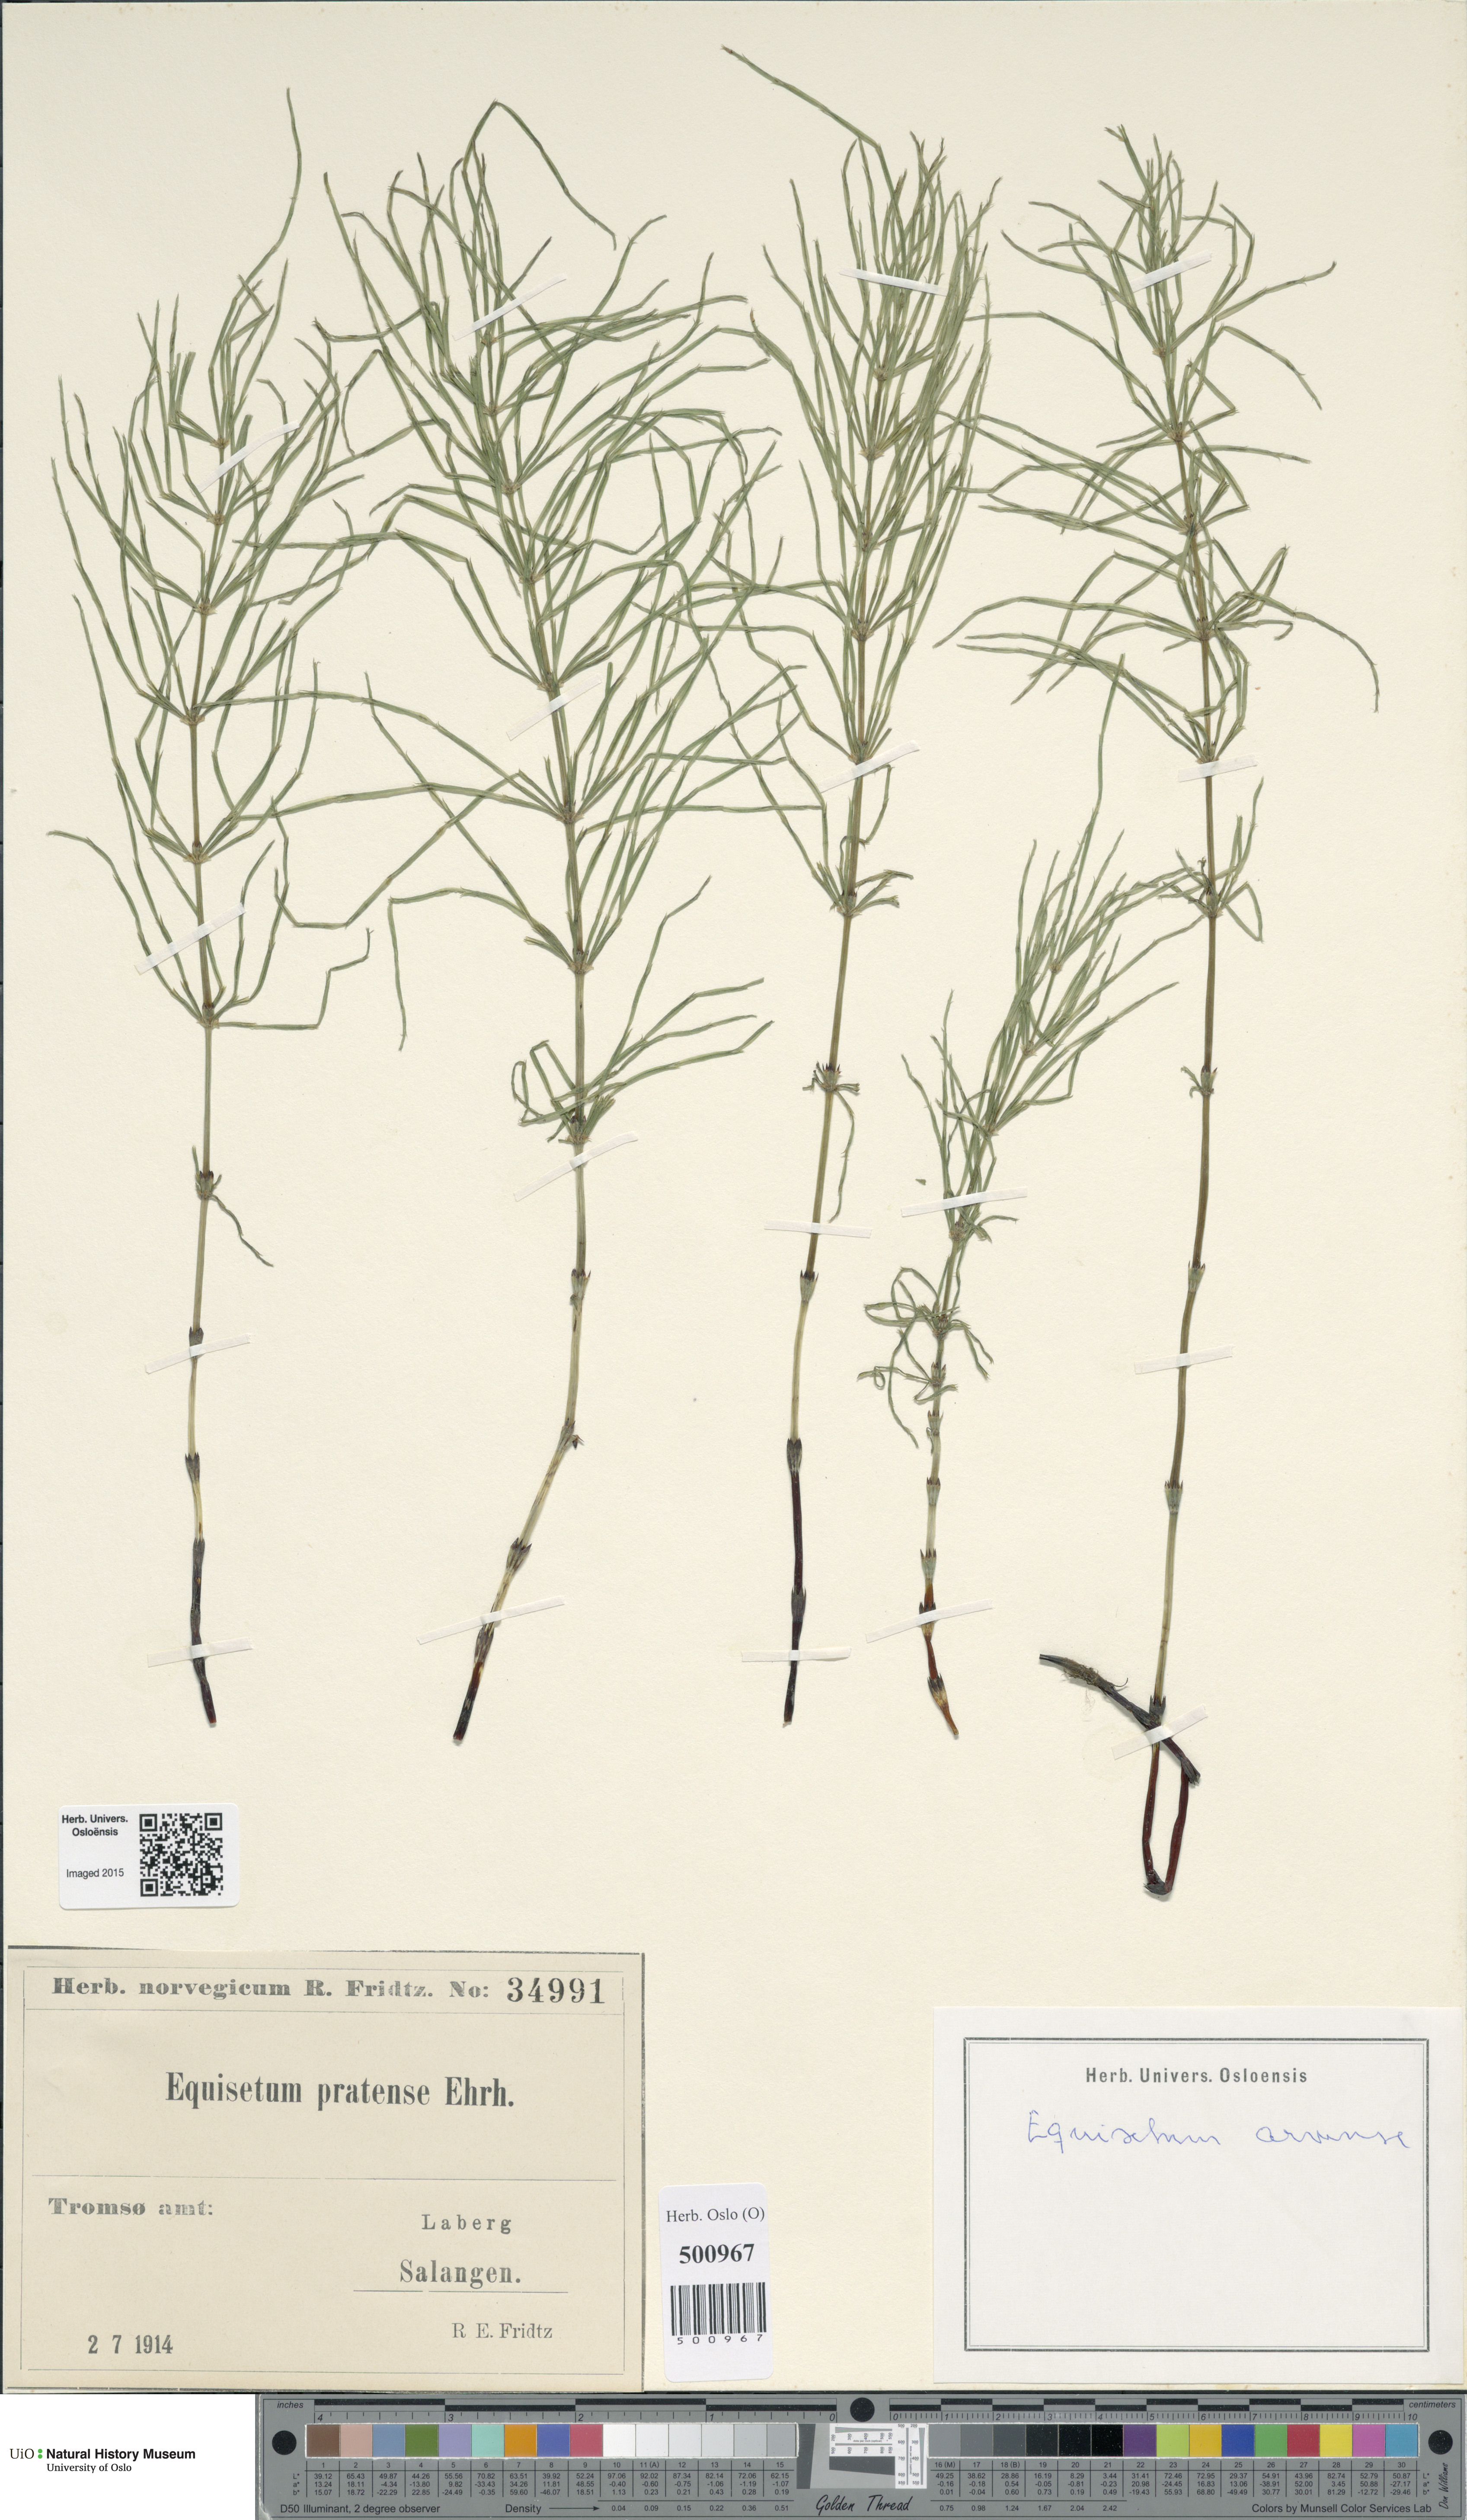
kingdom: Plantae
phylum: Tracheophyta
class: Polypodiopsida
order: Equisetales
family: Equisetaceae
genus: Equisetum
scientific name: Equisetum arvense
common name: Field horsetail
